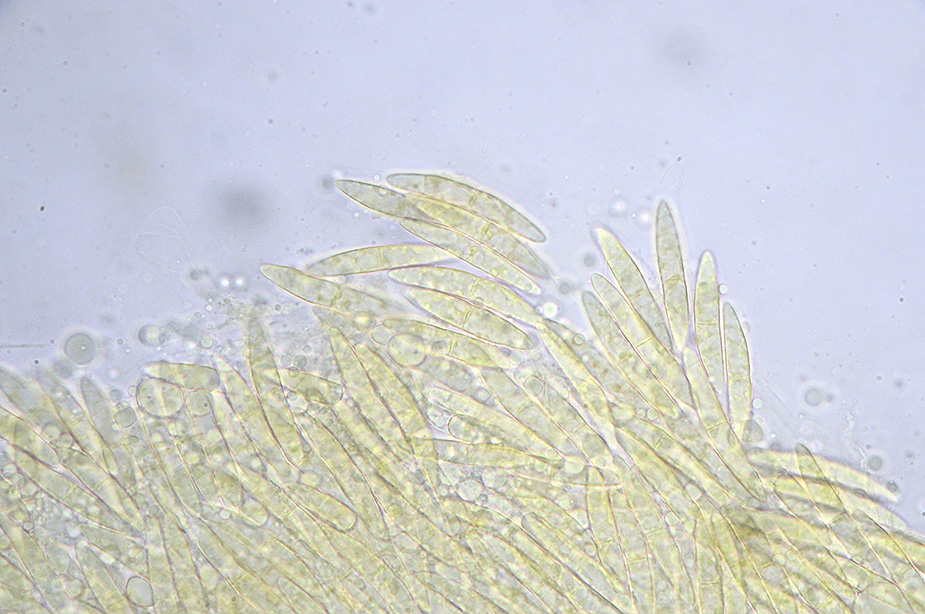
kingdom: Fungi
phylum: Ascomycota
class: Sordariomycetes
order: Coronophorales
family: Bertiaceae
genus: Bertia
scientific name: Bertia moriformis
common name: almindelig morbærkerne
